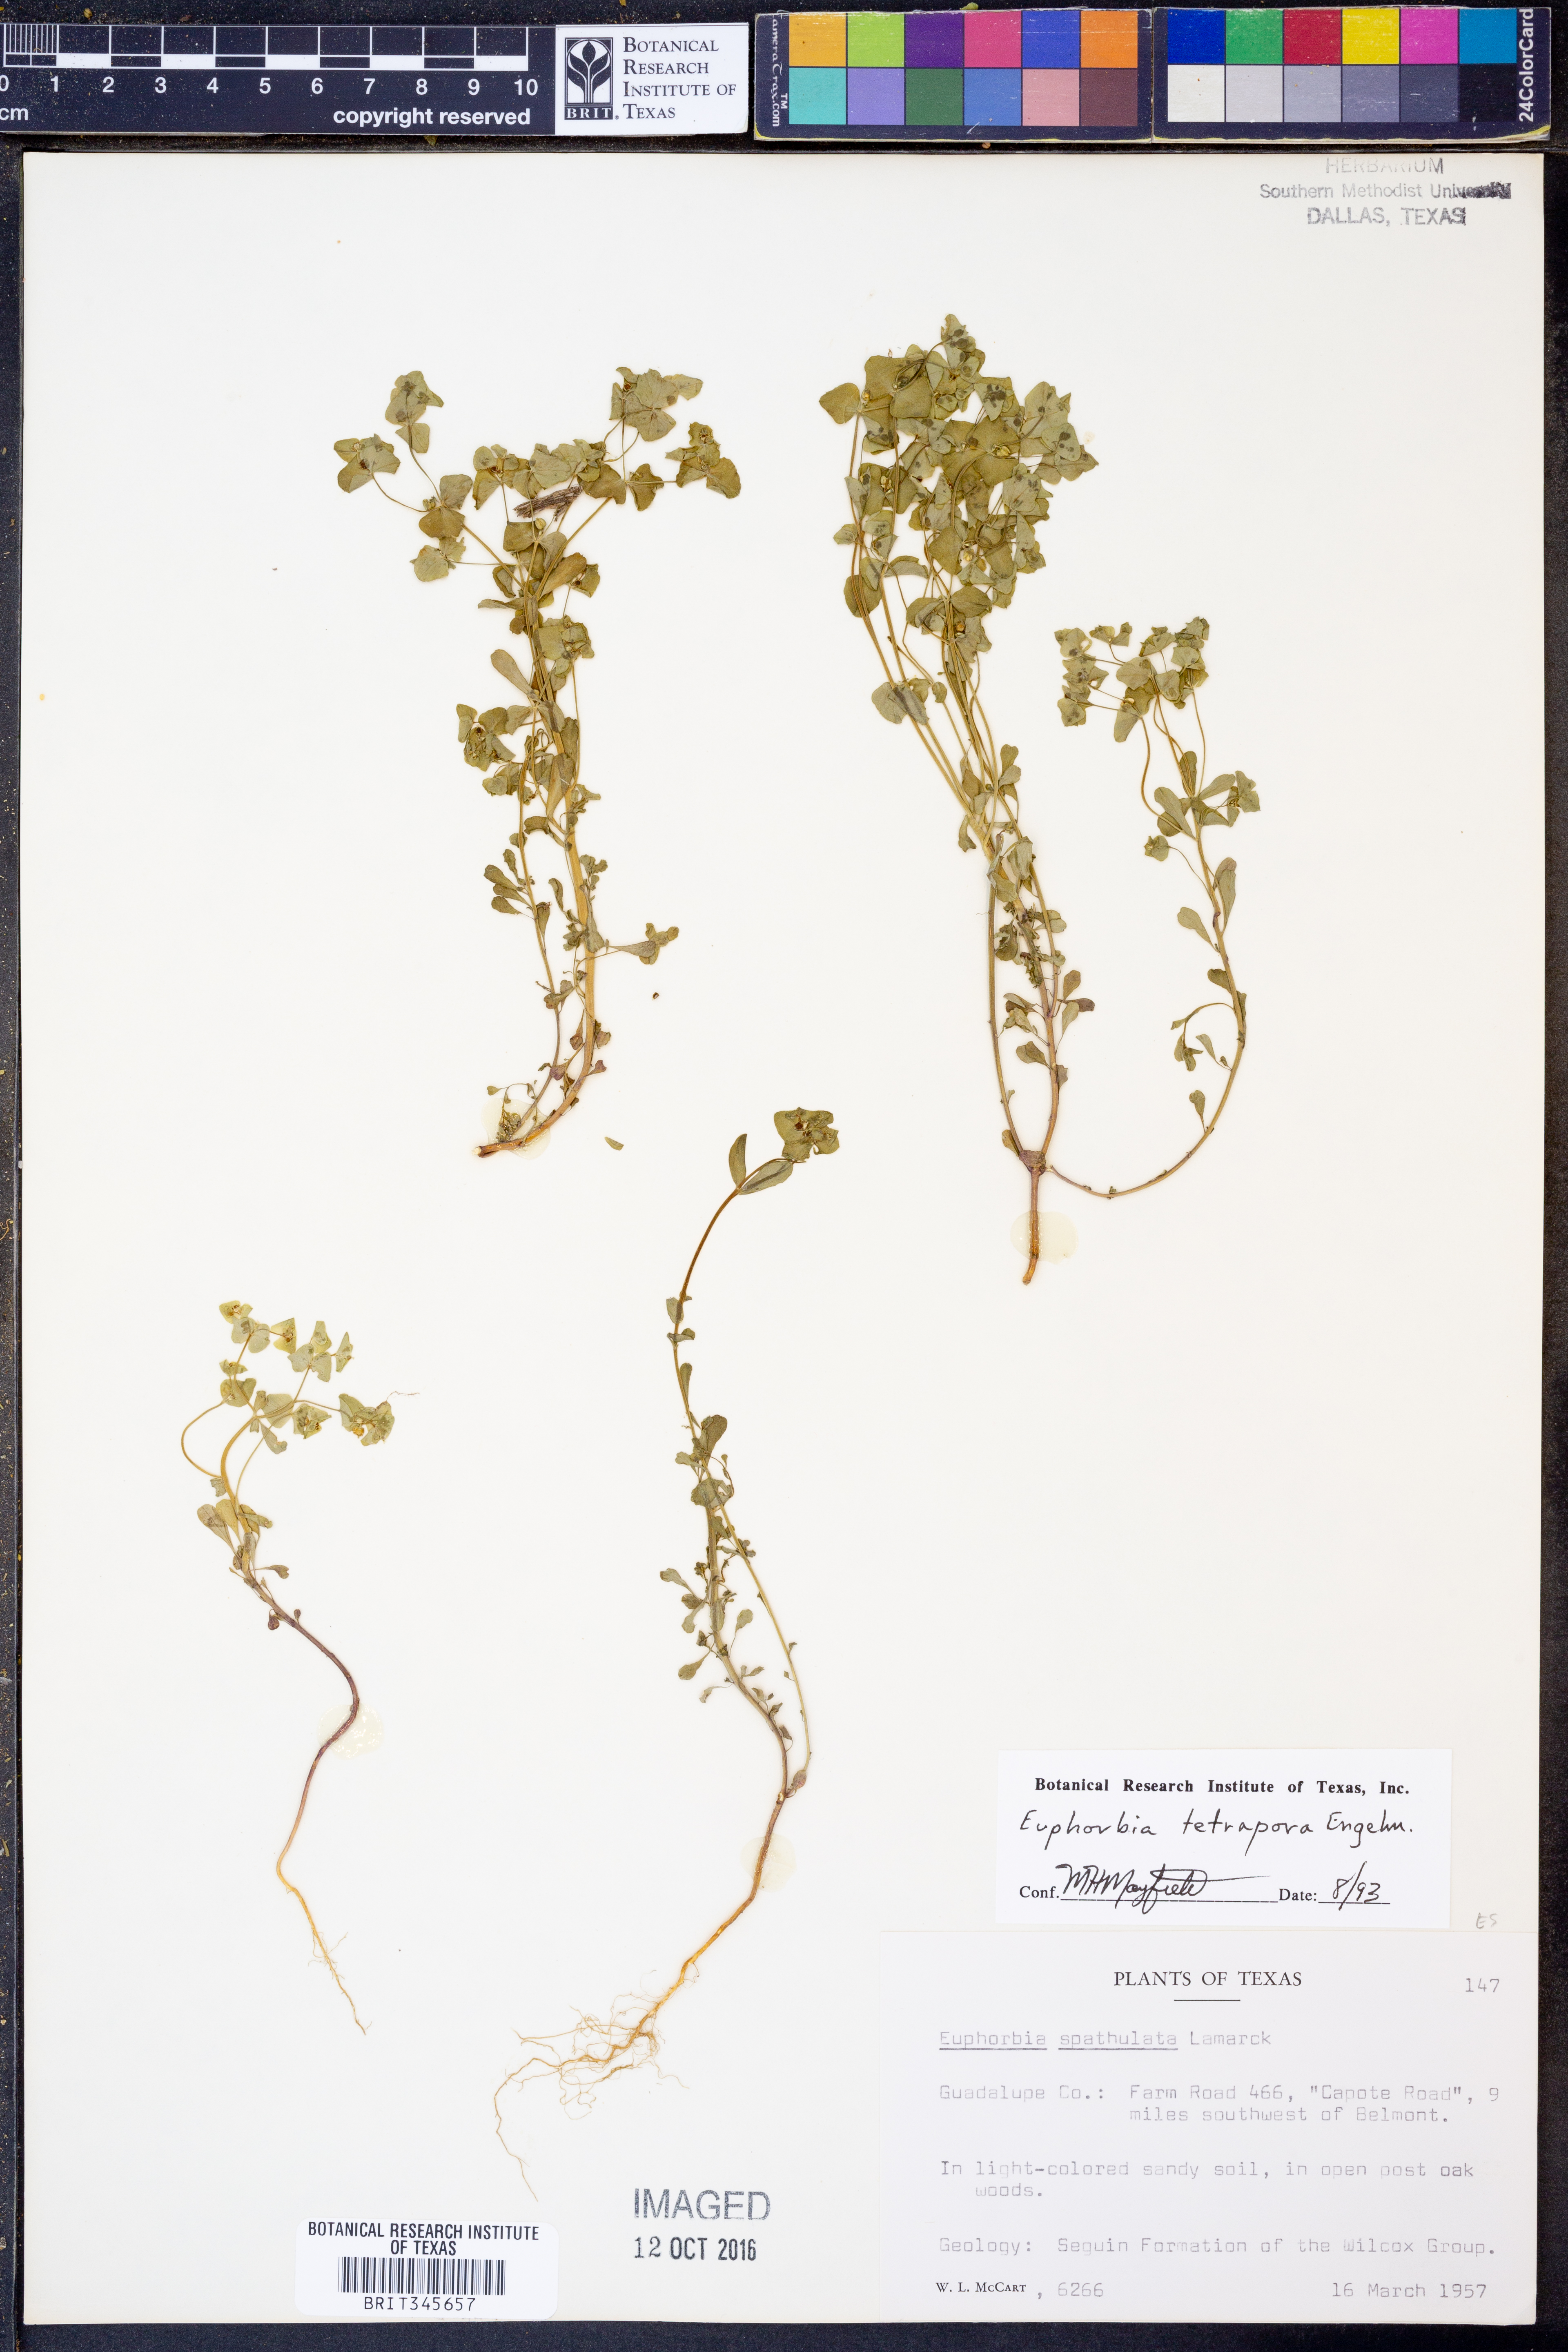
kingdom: Plantae
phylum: Tracheophyta
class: Magnoliopsida
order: Malpighiales
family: Euphorbiaceae
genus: Euphorbia
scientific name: Euphorbia tetrapora
